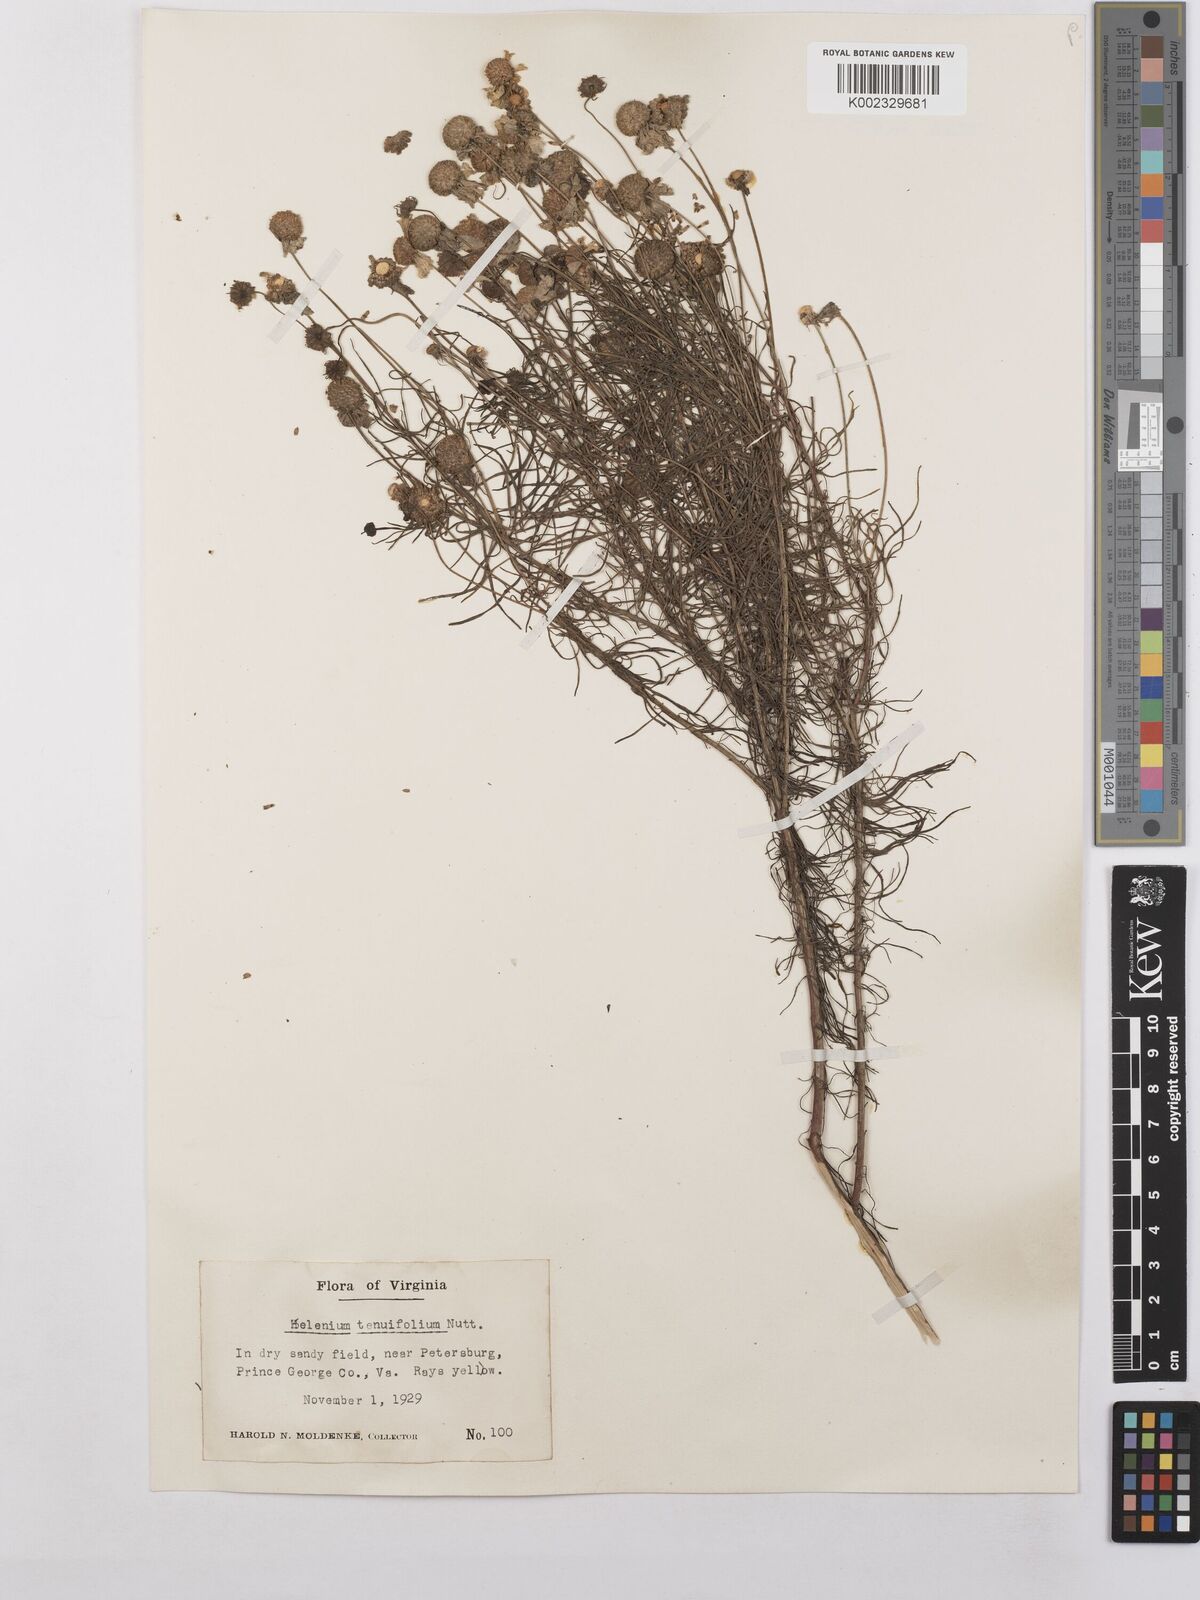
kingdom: Plantae
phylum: Tracheophyta
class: Magnoliopsida
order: Asterales
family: Asteraceae
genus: Helenium
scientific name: Helenium amarum
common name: Bitter sneezeweed
